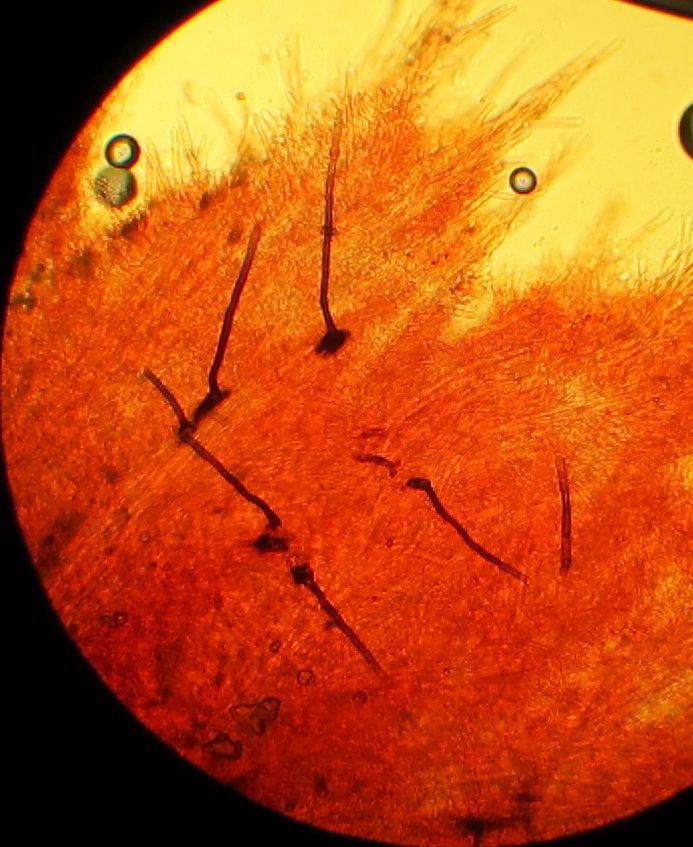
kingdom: Fungi
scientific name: Fungi
